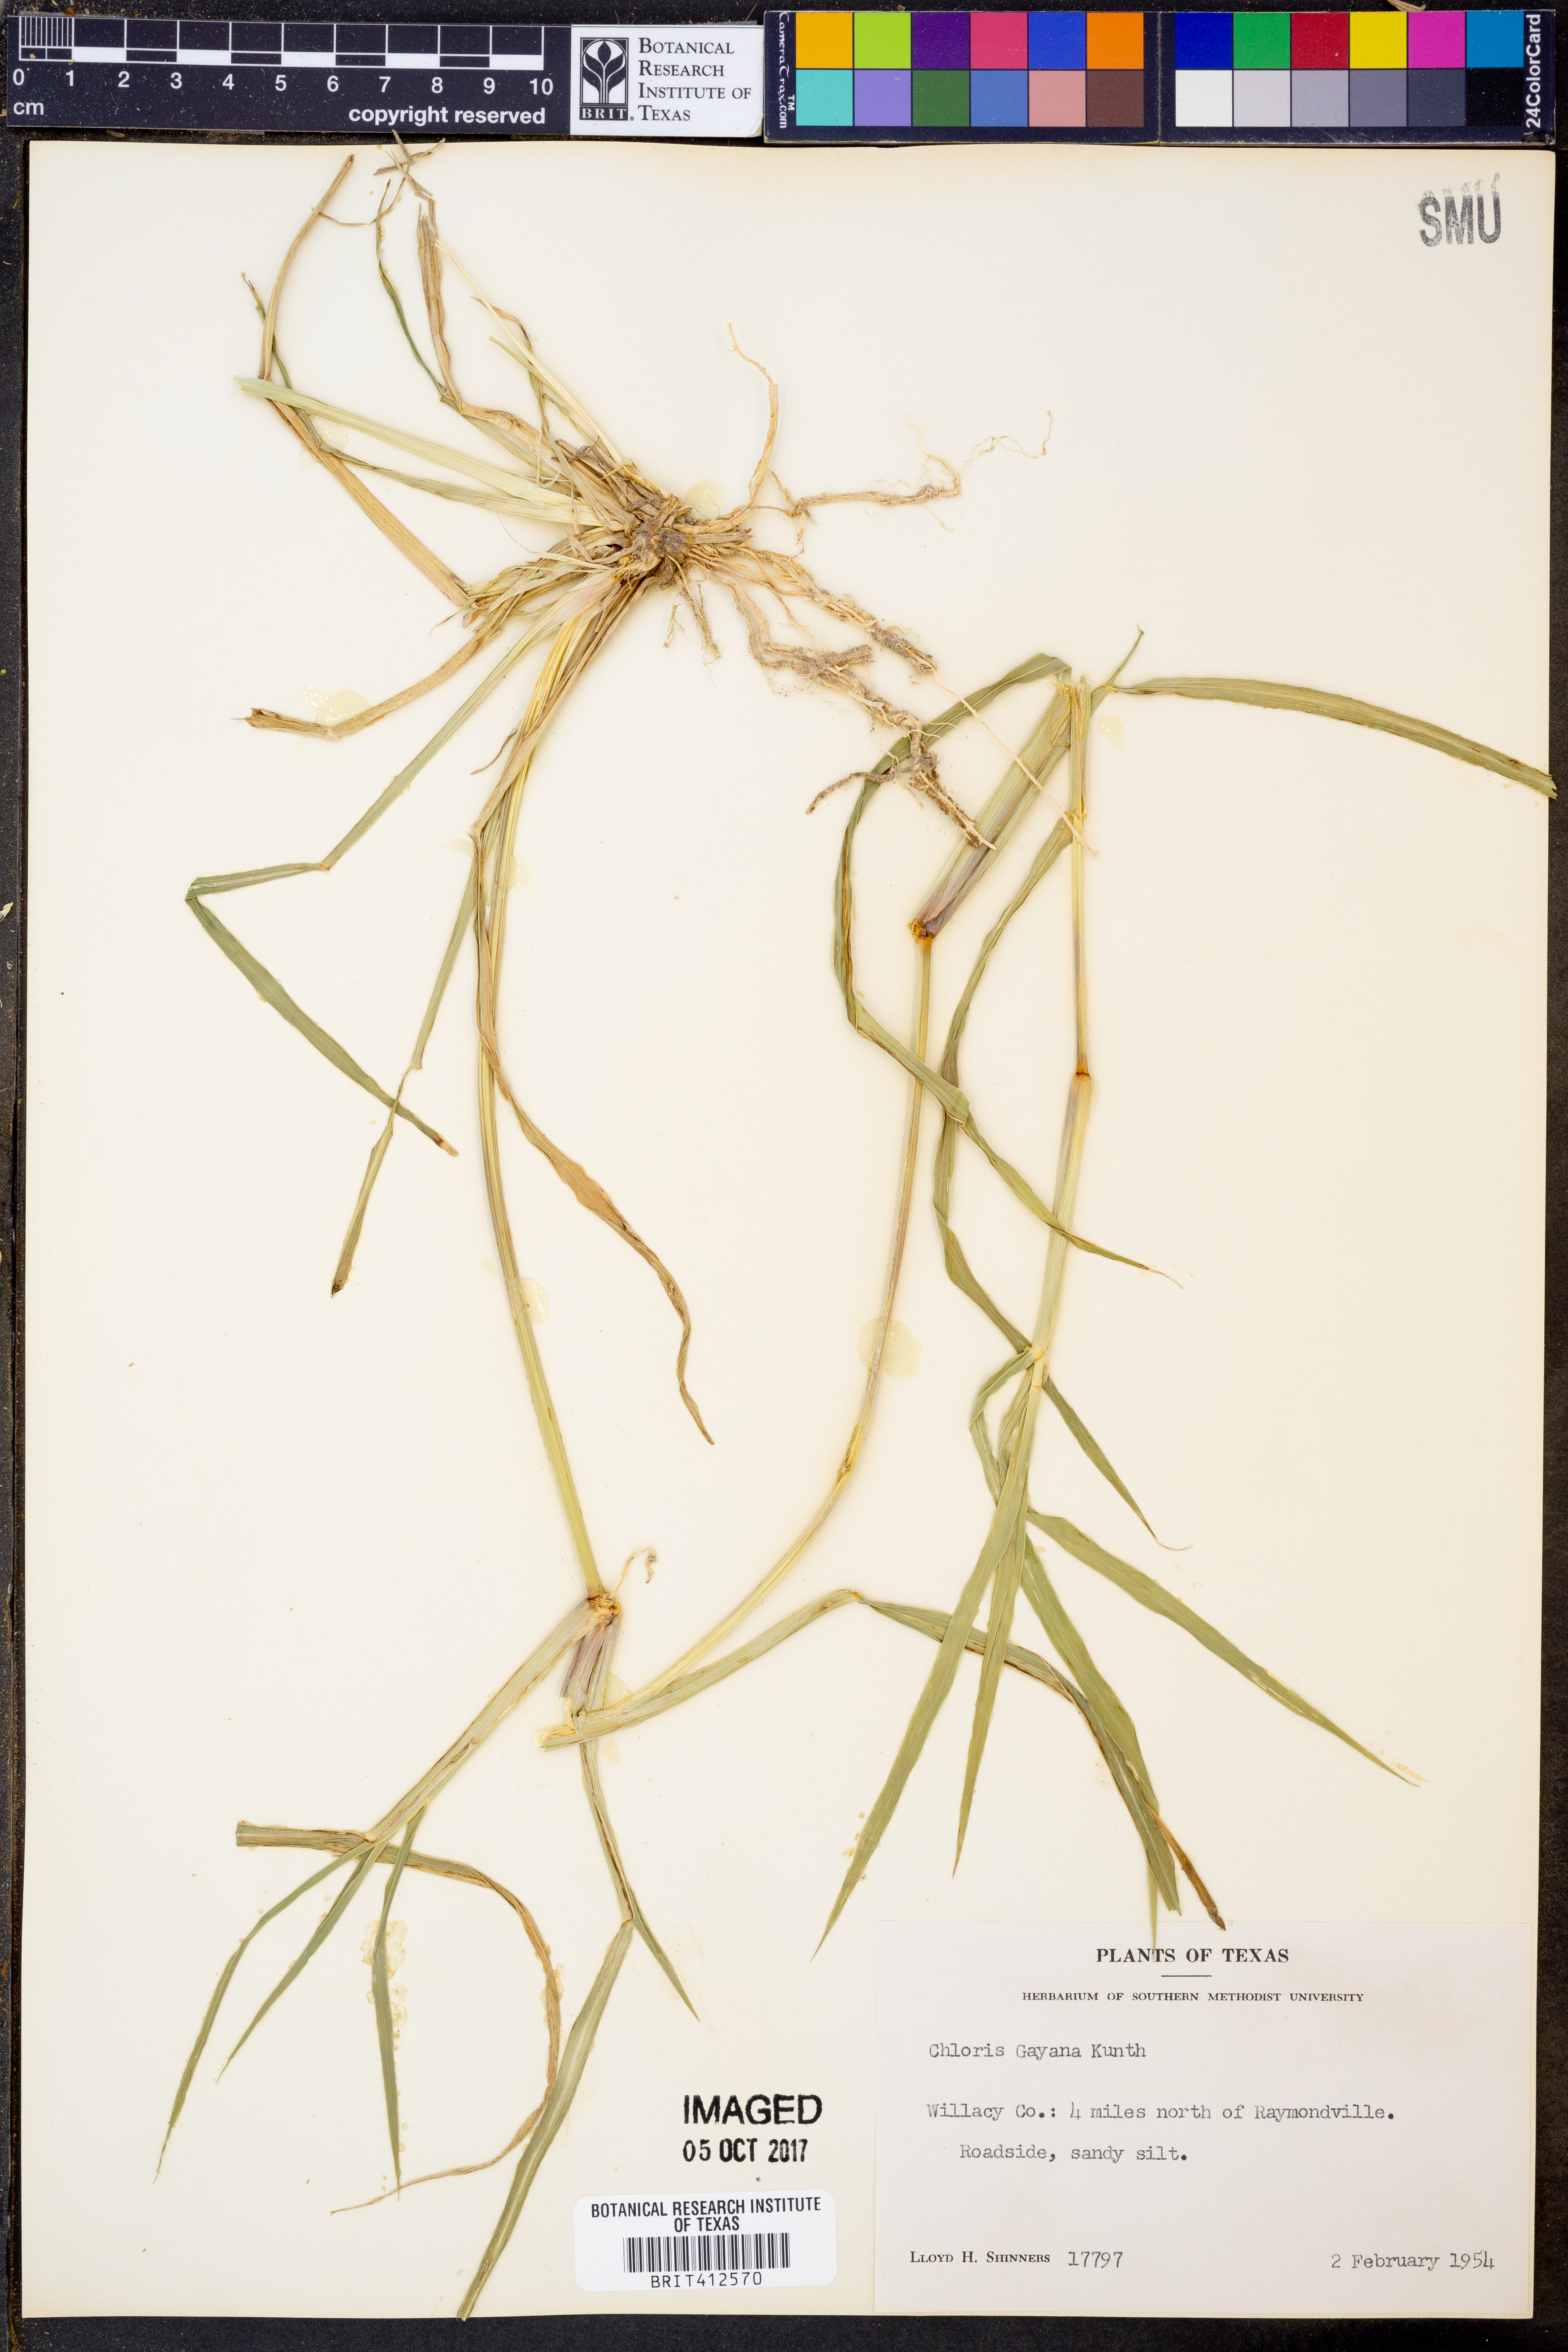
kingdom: Plantae
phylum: Tracheophyta
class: Liliopsida
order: Poales
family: Poaceae
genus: Chloris
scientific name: Chloris gayana
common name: Rhodes grass
